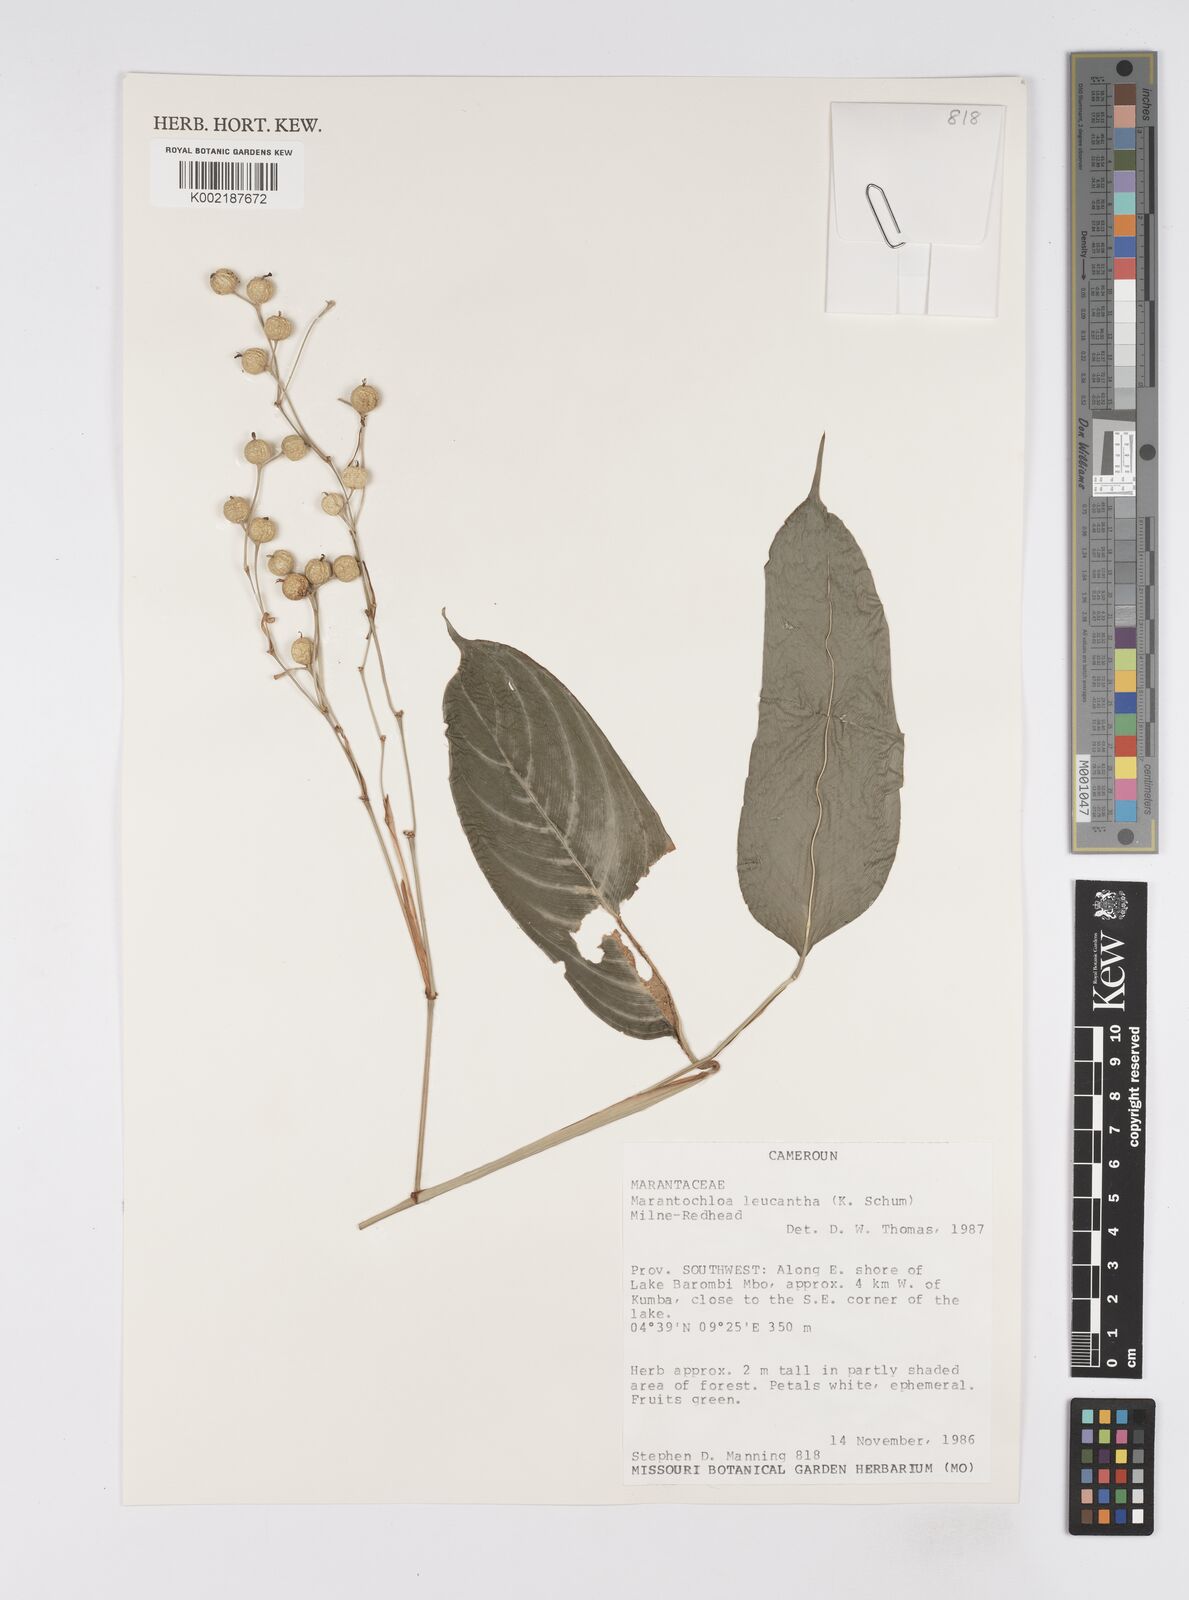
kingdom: Plantae
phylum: Tracheophyta
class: Liliopsida
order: Zingiberales
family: Marantaceae
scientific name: Marantaceae
